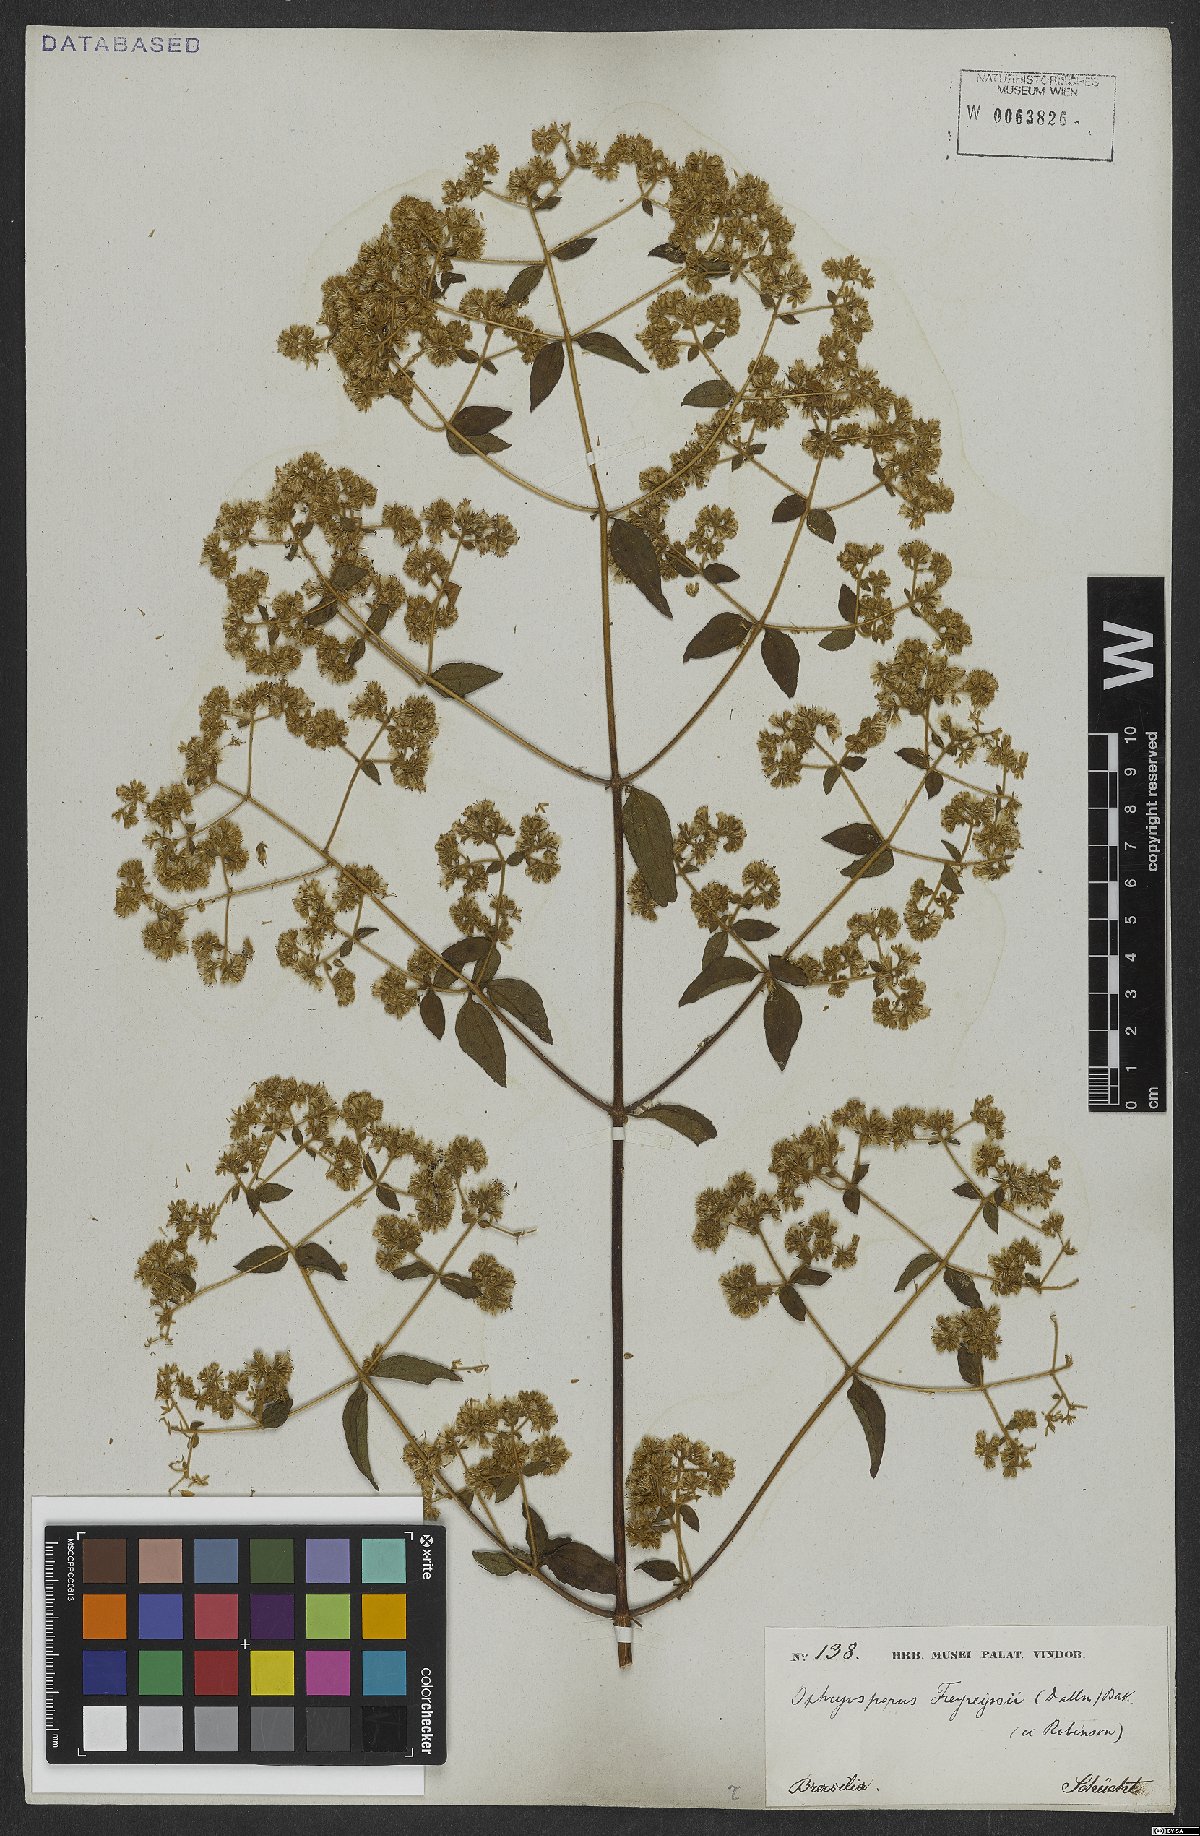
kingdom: Plantae
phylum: Tracheophyta
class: Magnoliopsida
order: Asterales
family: Asteraceae
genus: Ophryosporus
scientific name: Ophryosporus freyreysi
